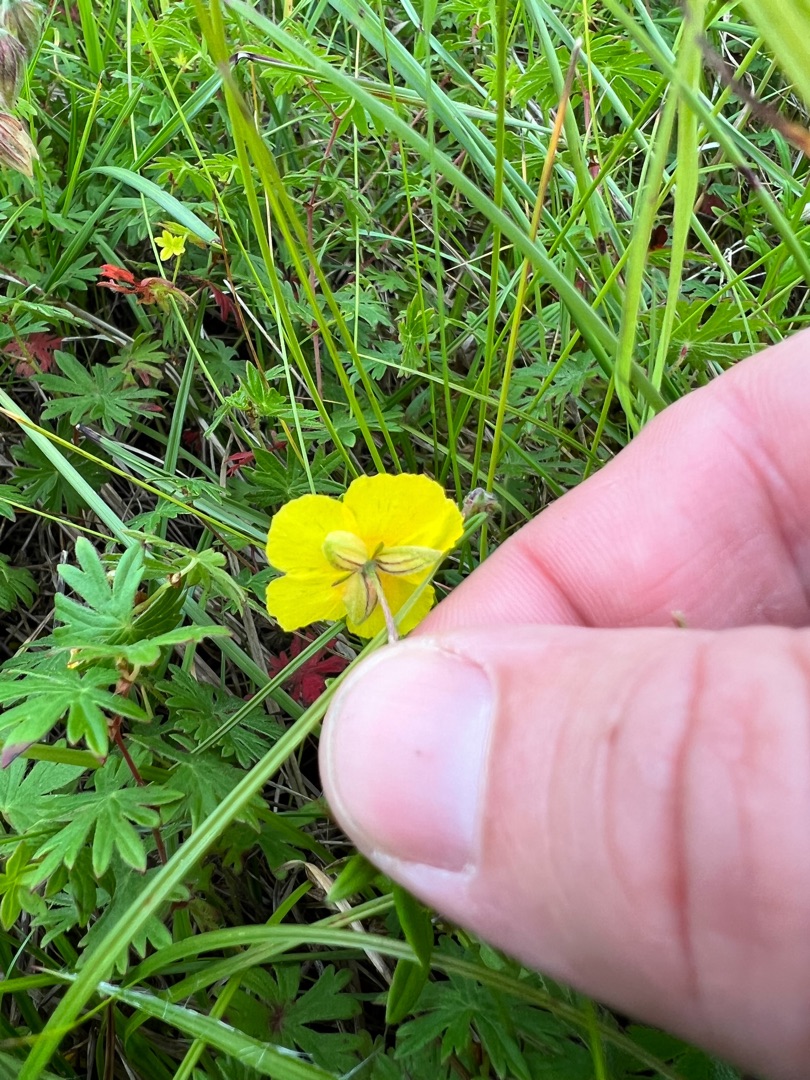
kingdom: Plantae
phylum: Tracheophyta
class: Magnoliopsida
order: Malvales
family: Cistaceae
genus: Helianthemum
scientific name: Helianthemum nummularium
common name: Soløje
